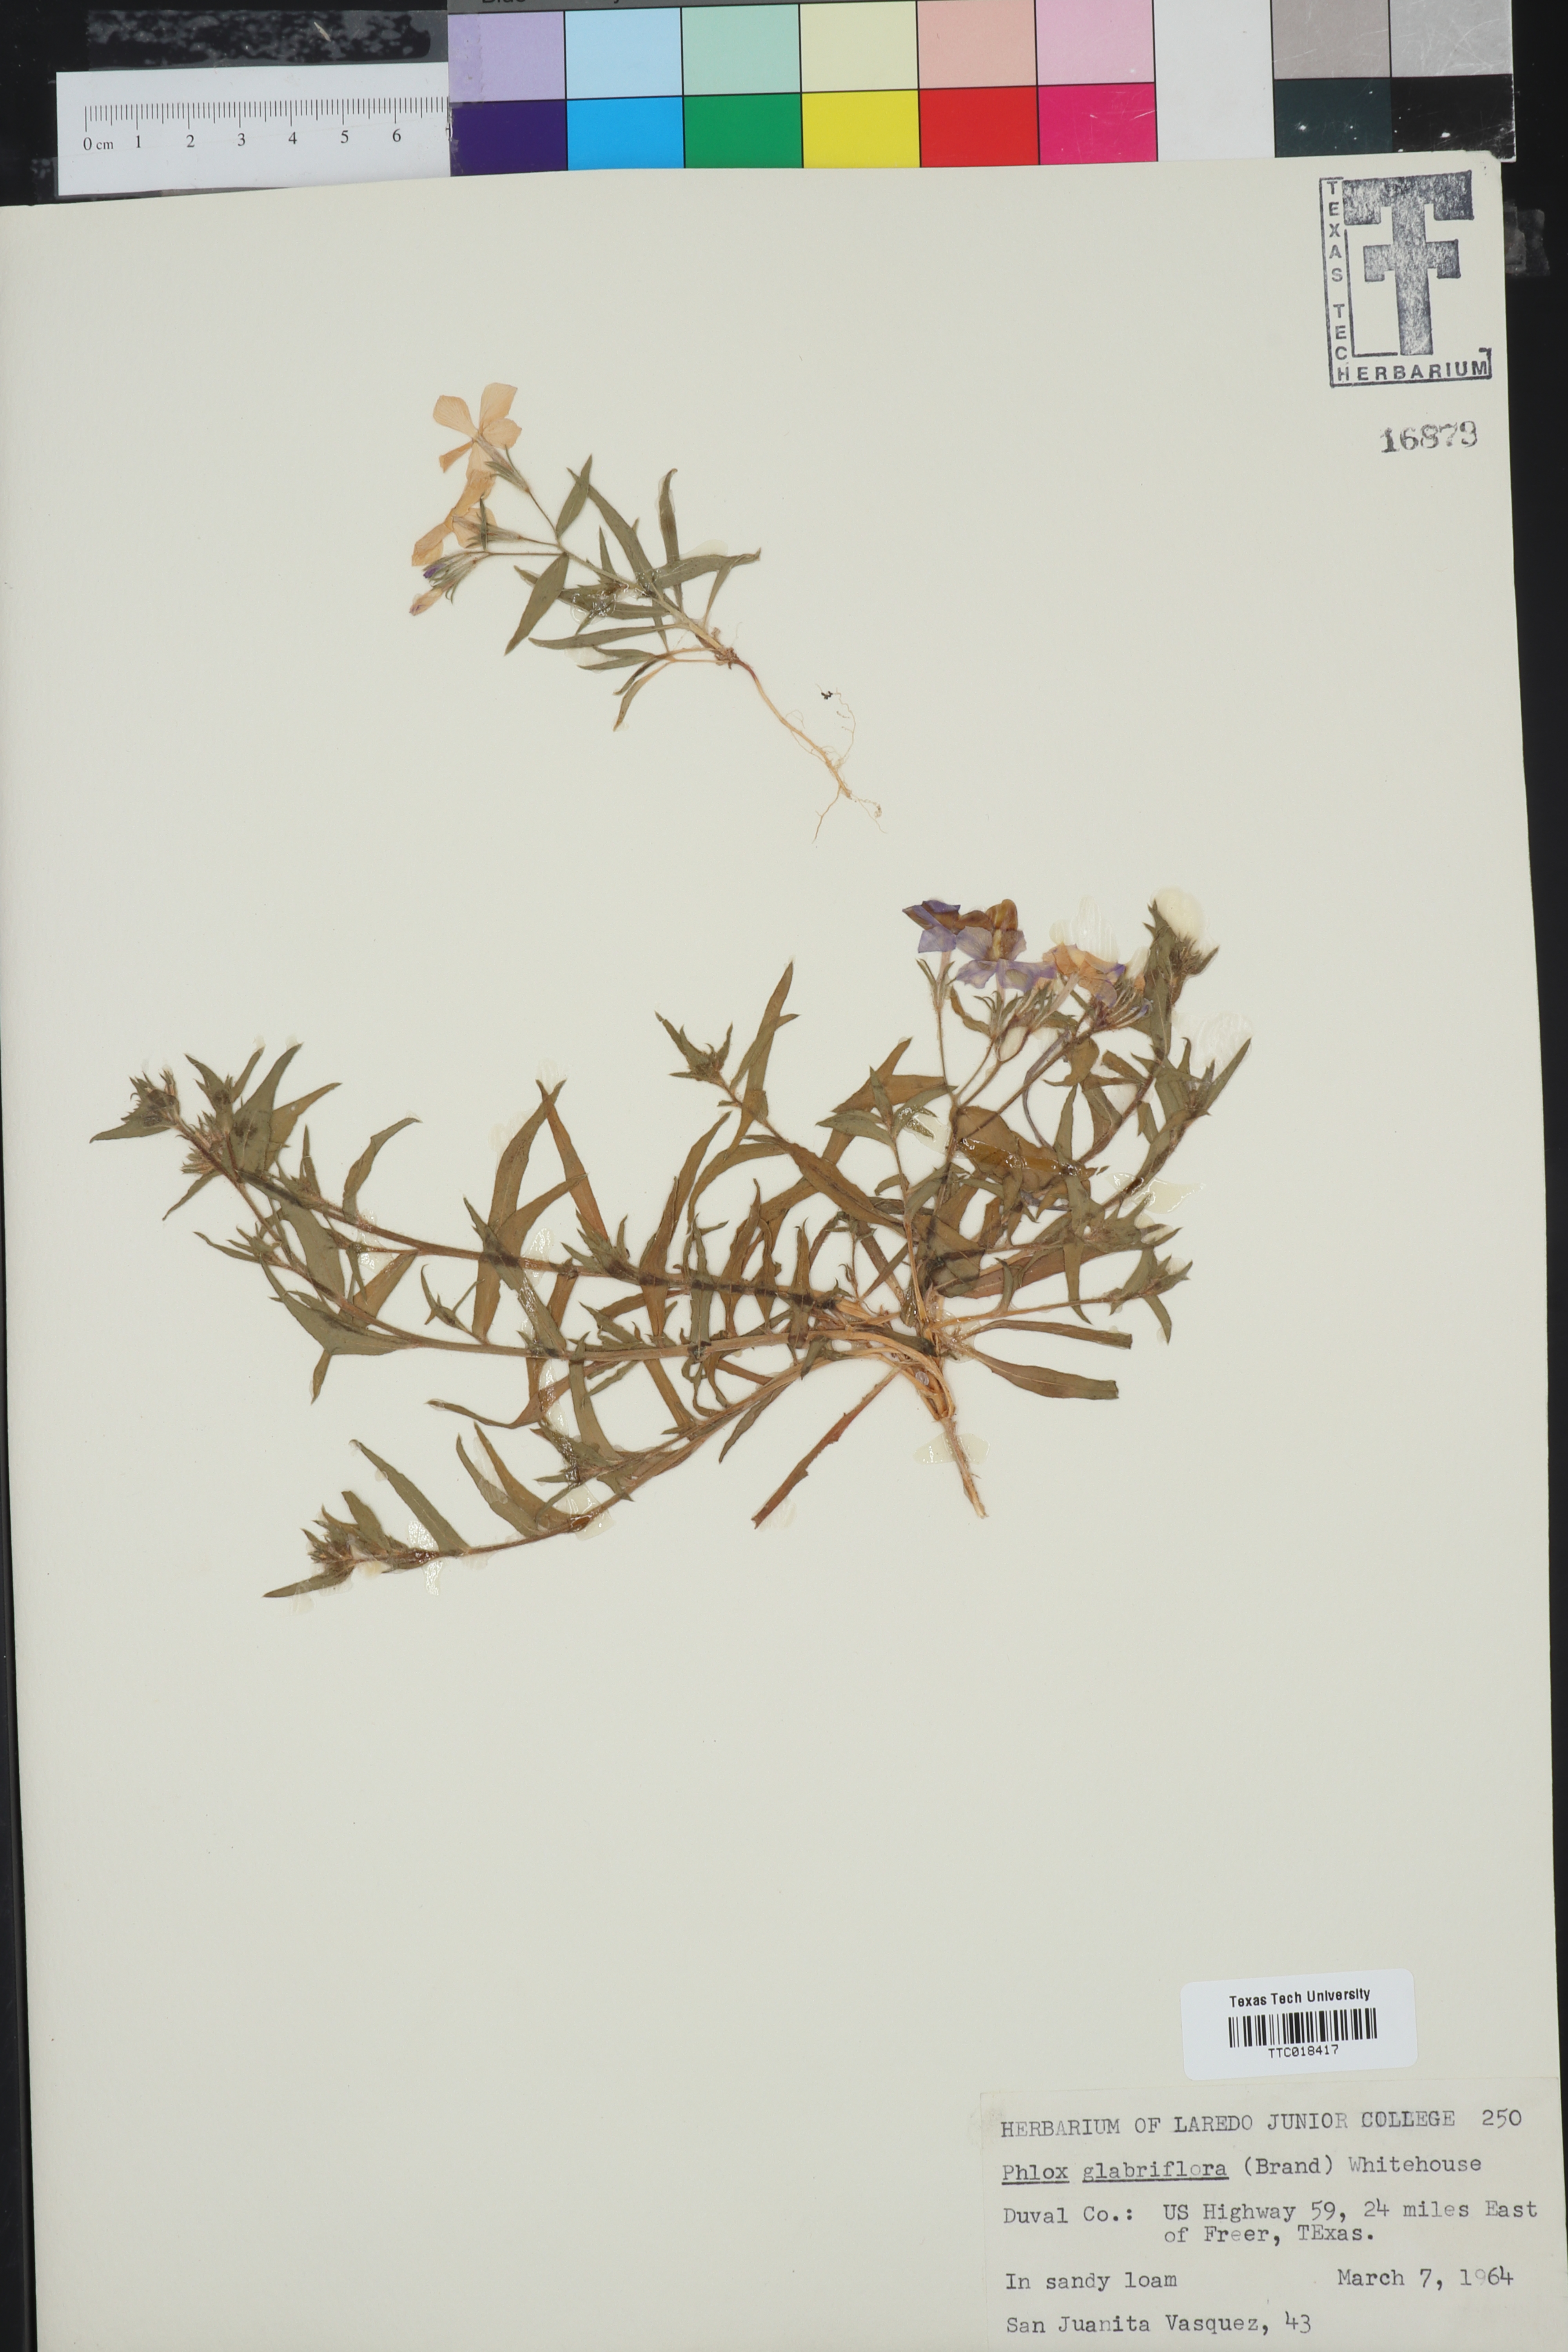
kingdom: Plantae
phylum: Tracheophyta
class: Magnoliopsida
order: Ericales
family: Polemoniaceae
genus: Phlox
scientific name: Phlox glabriflora
